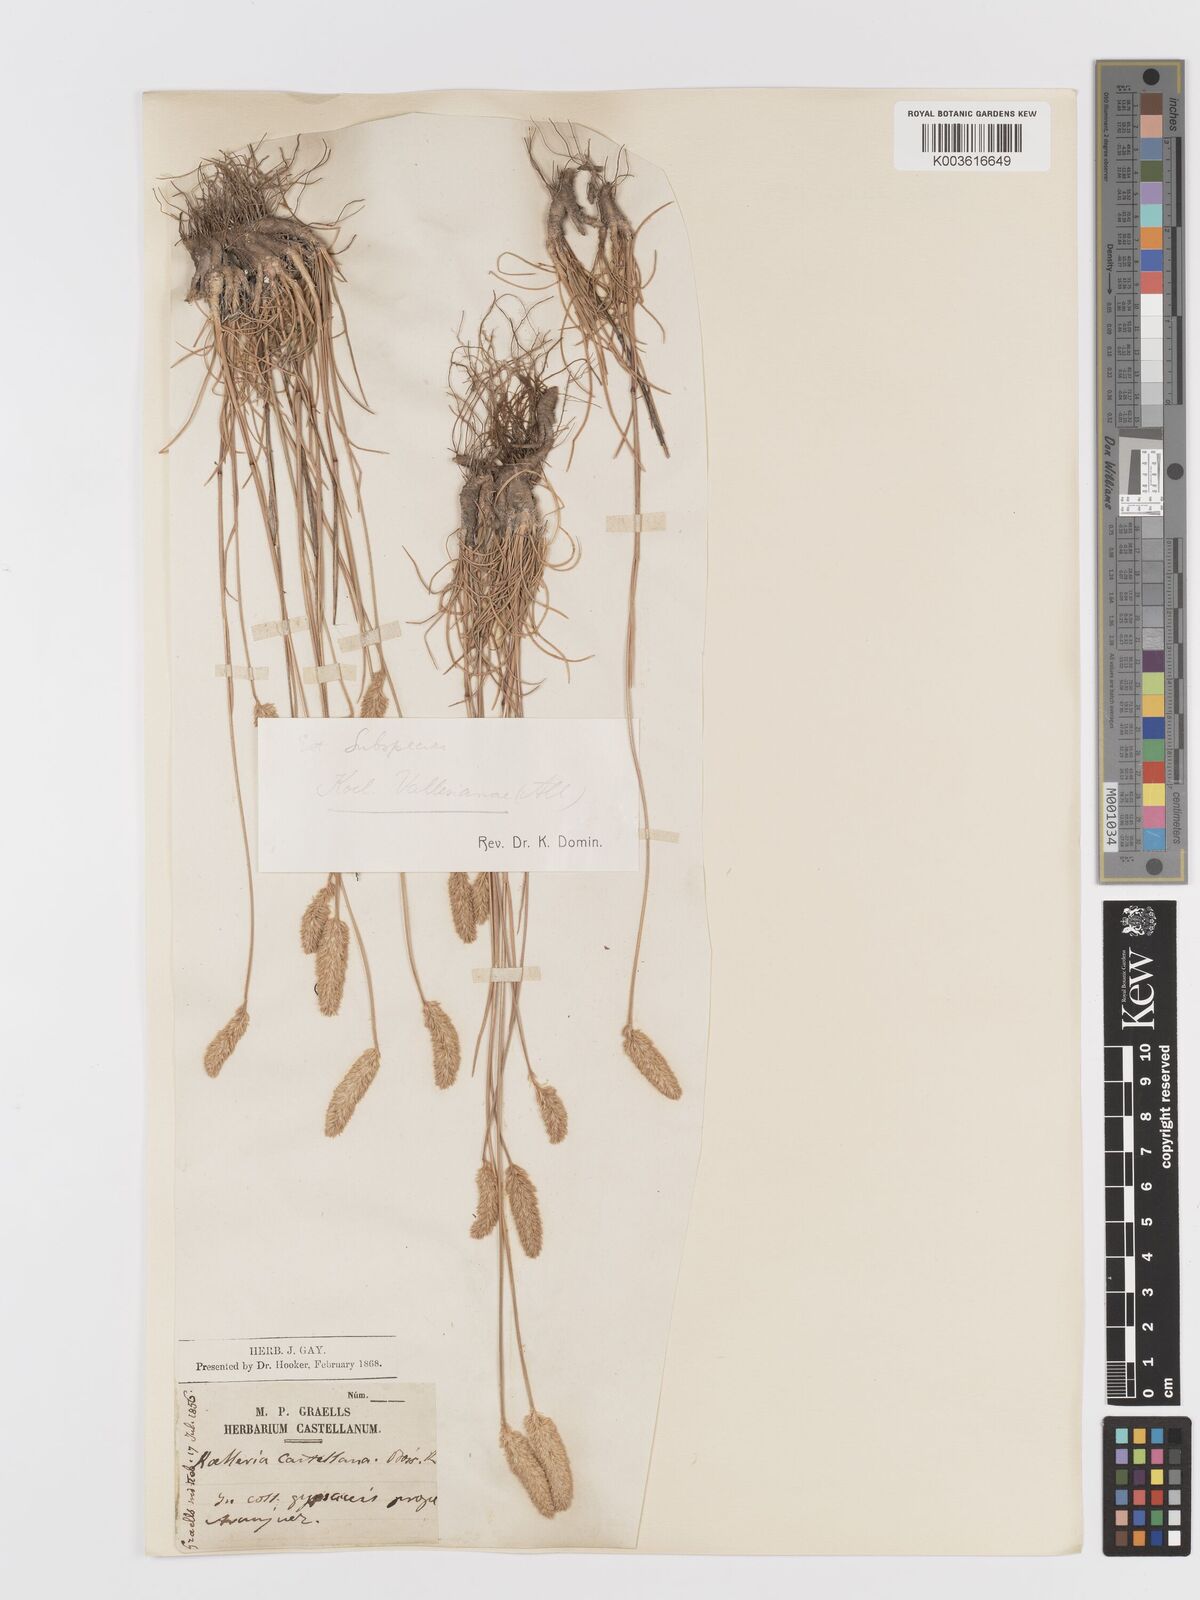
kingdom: Plantae
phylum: Tracheophyta
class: Liliopsida
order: Poales
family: Poaceae
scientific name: Poaceae
